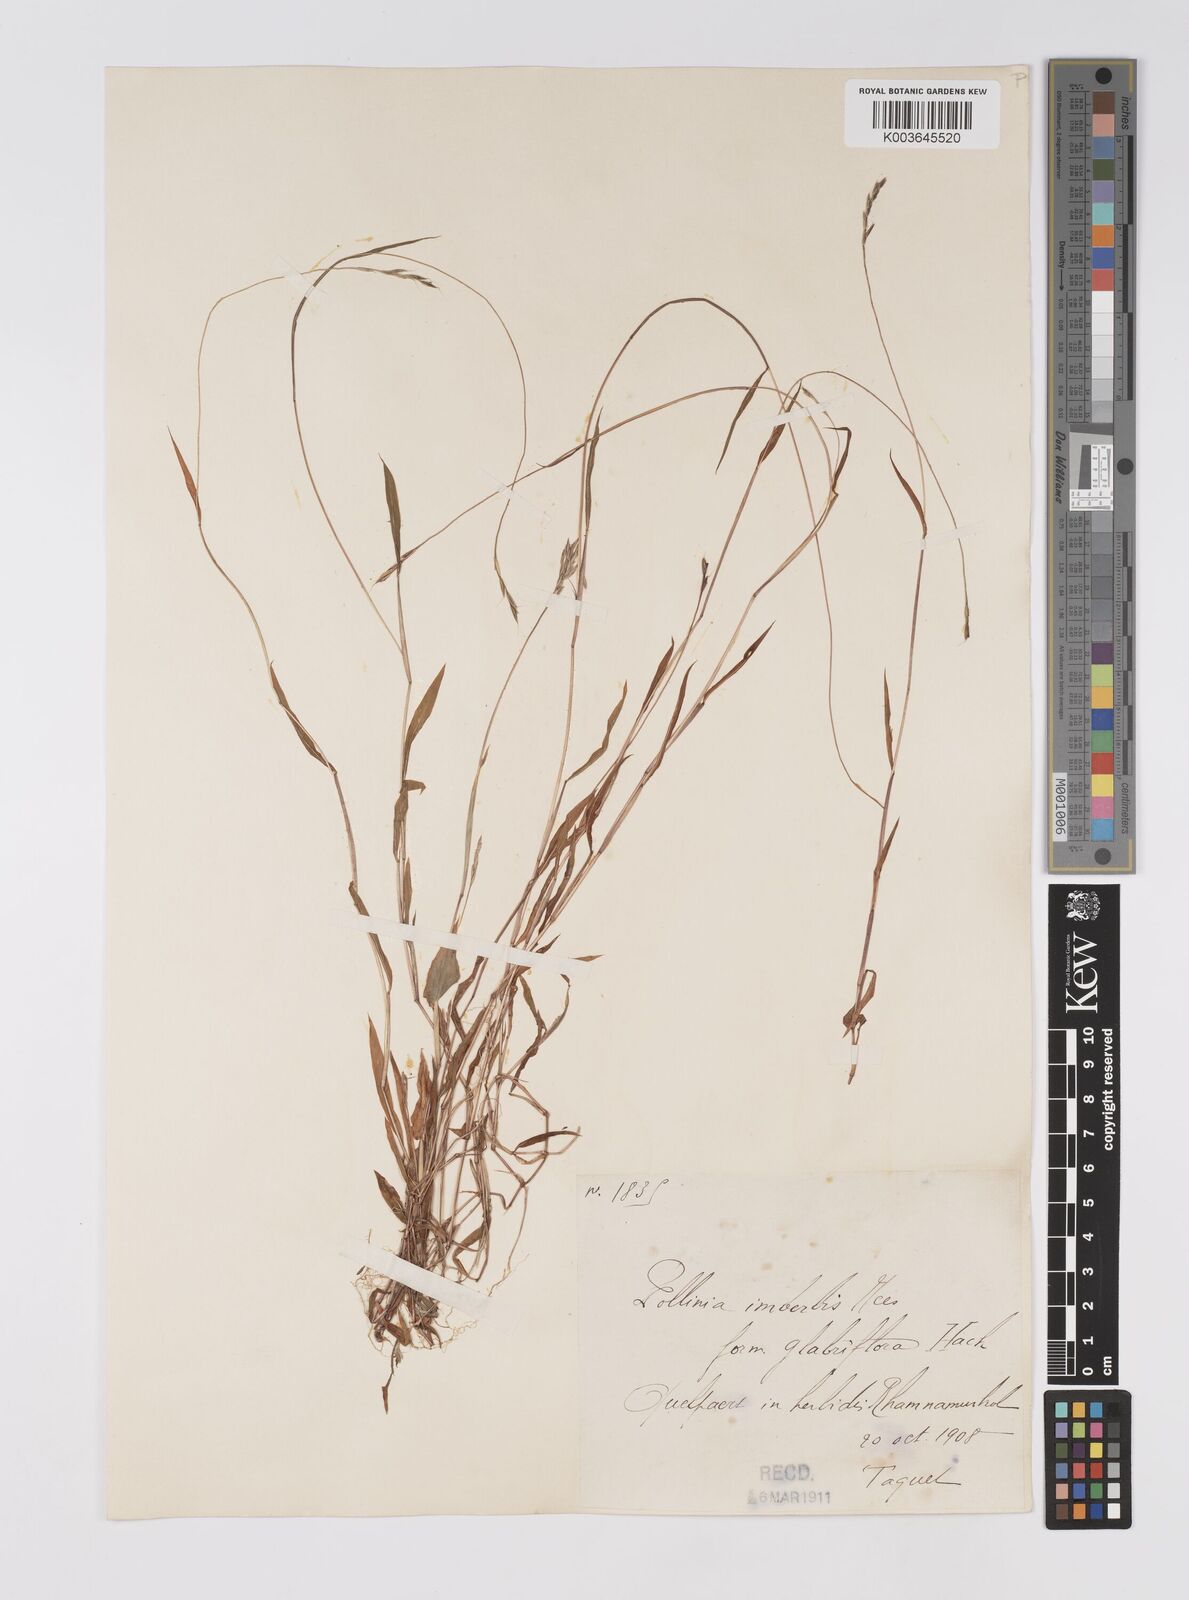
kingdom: Plantae
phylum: Tracheophyta
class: Liliopsida
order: Poales
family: Poaceae
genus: Microstegium
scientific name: Microstegium vimineum
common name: Japanese stiltgrass
